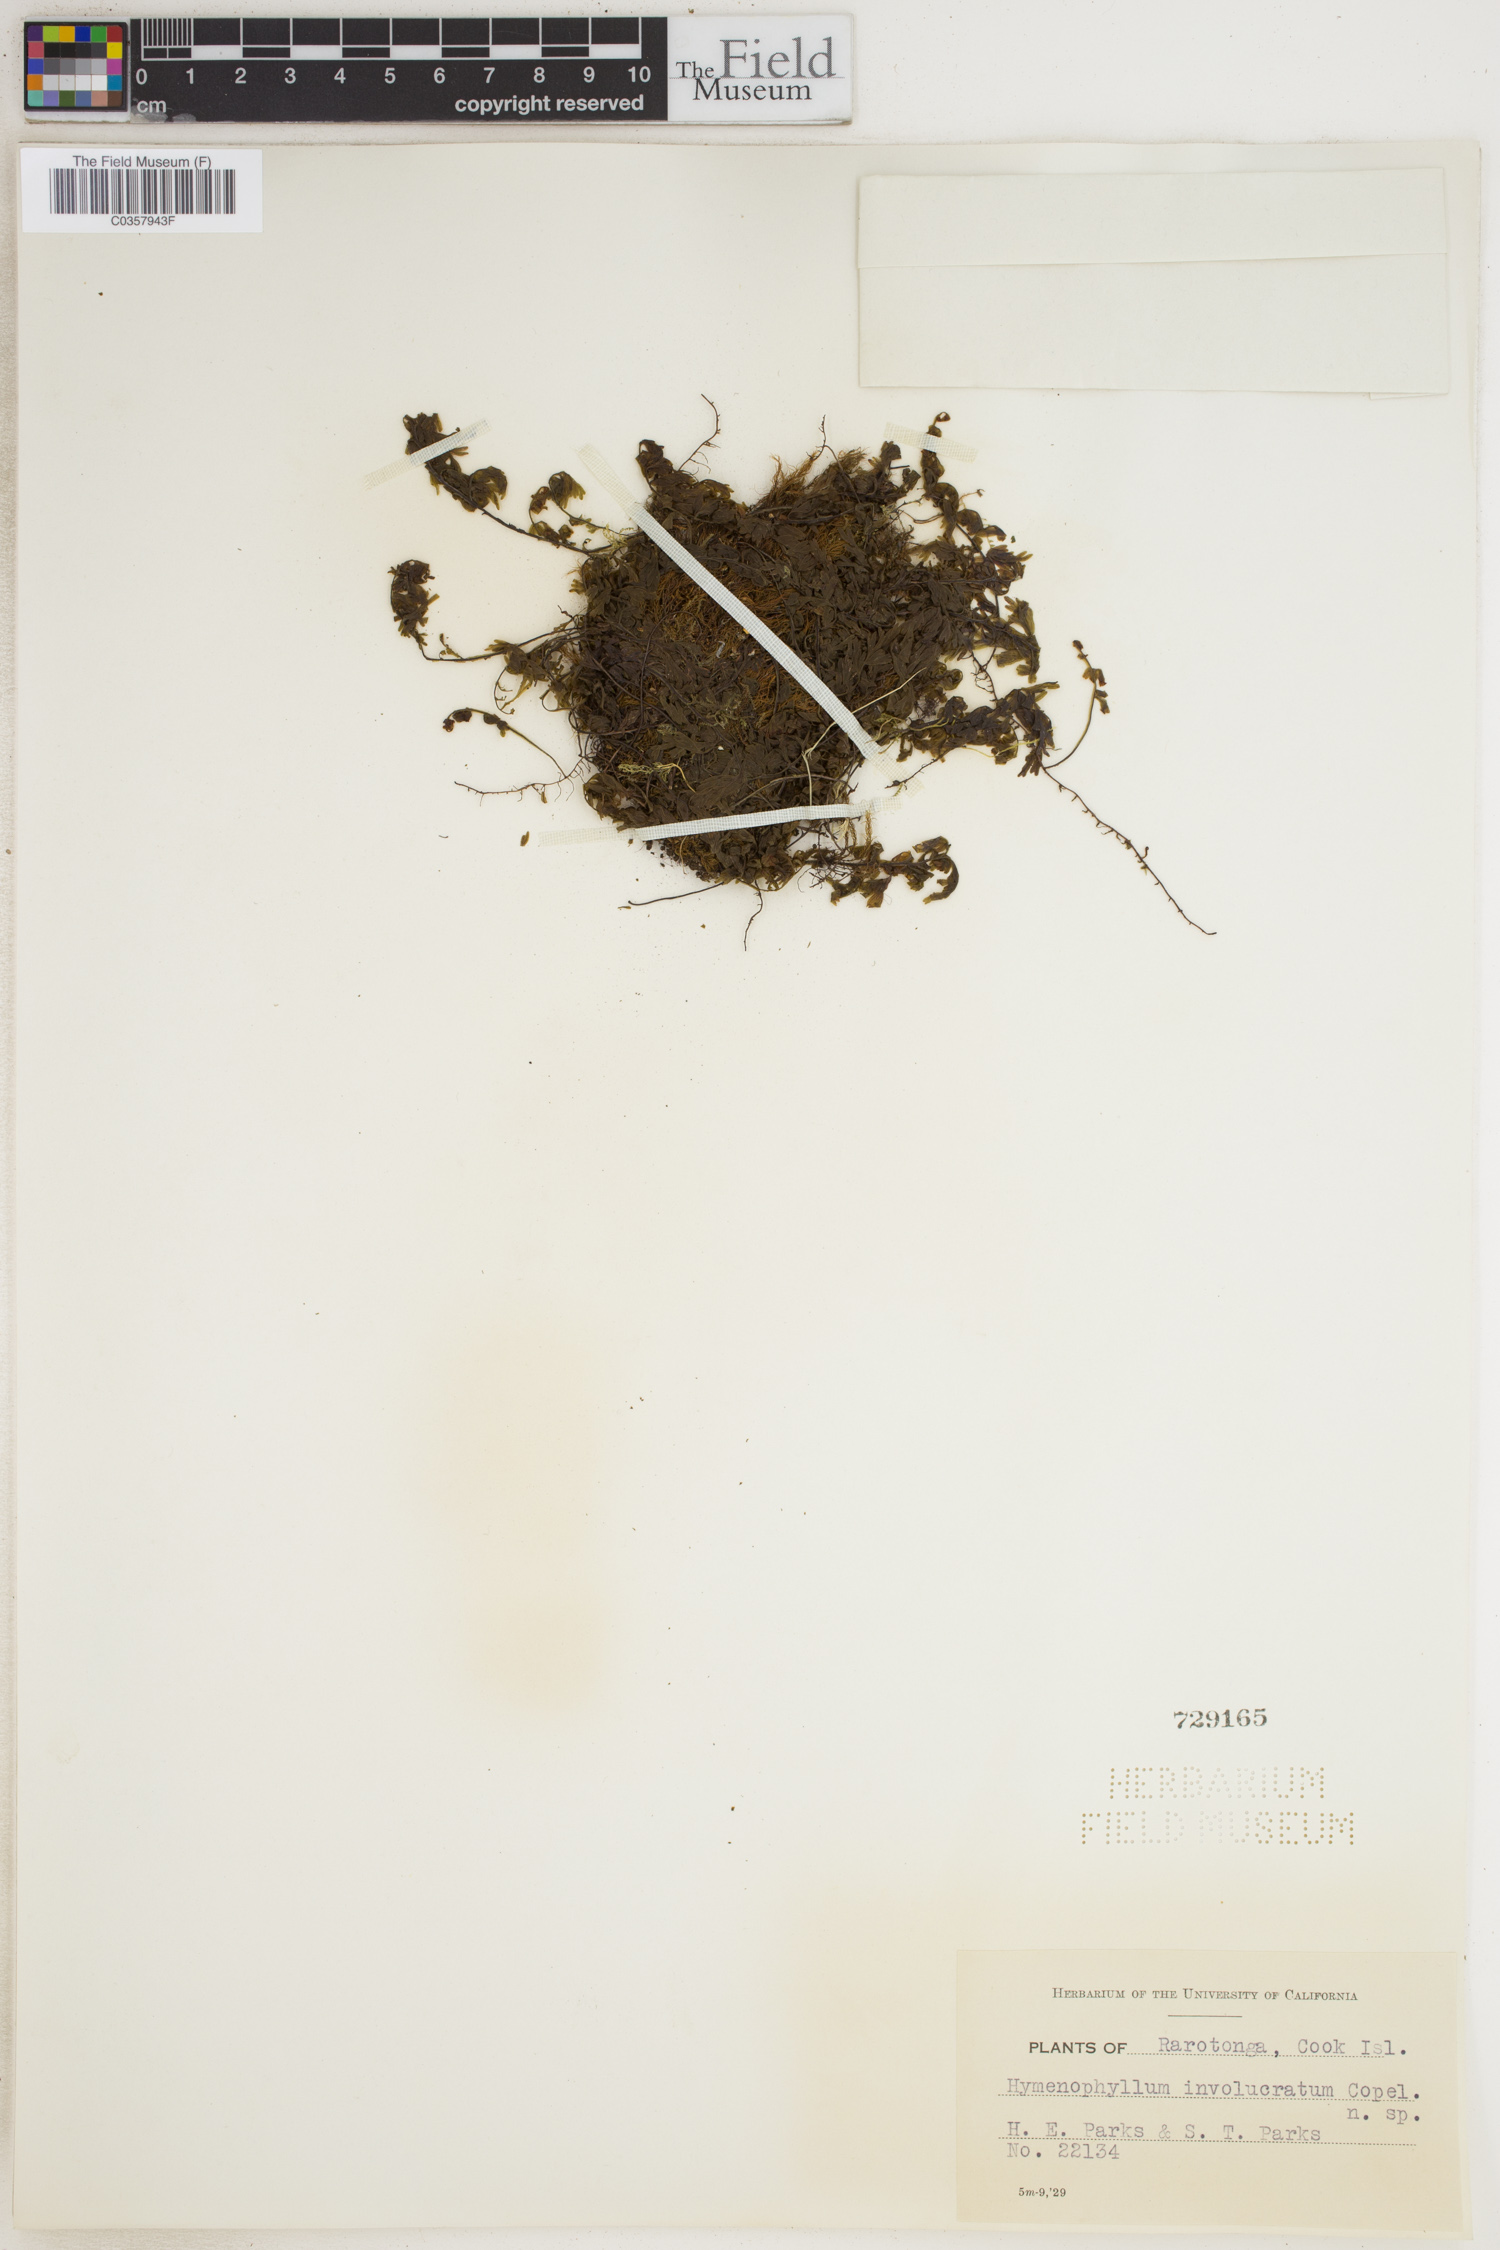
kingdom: Plantae
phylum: Tracheophyta
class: Polypodiopsida
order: Hymenophyllales
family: Hymenophyllaceae
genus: Hymenophyllum
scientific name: Hymenophyllum fumarioides
